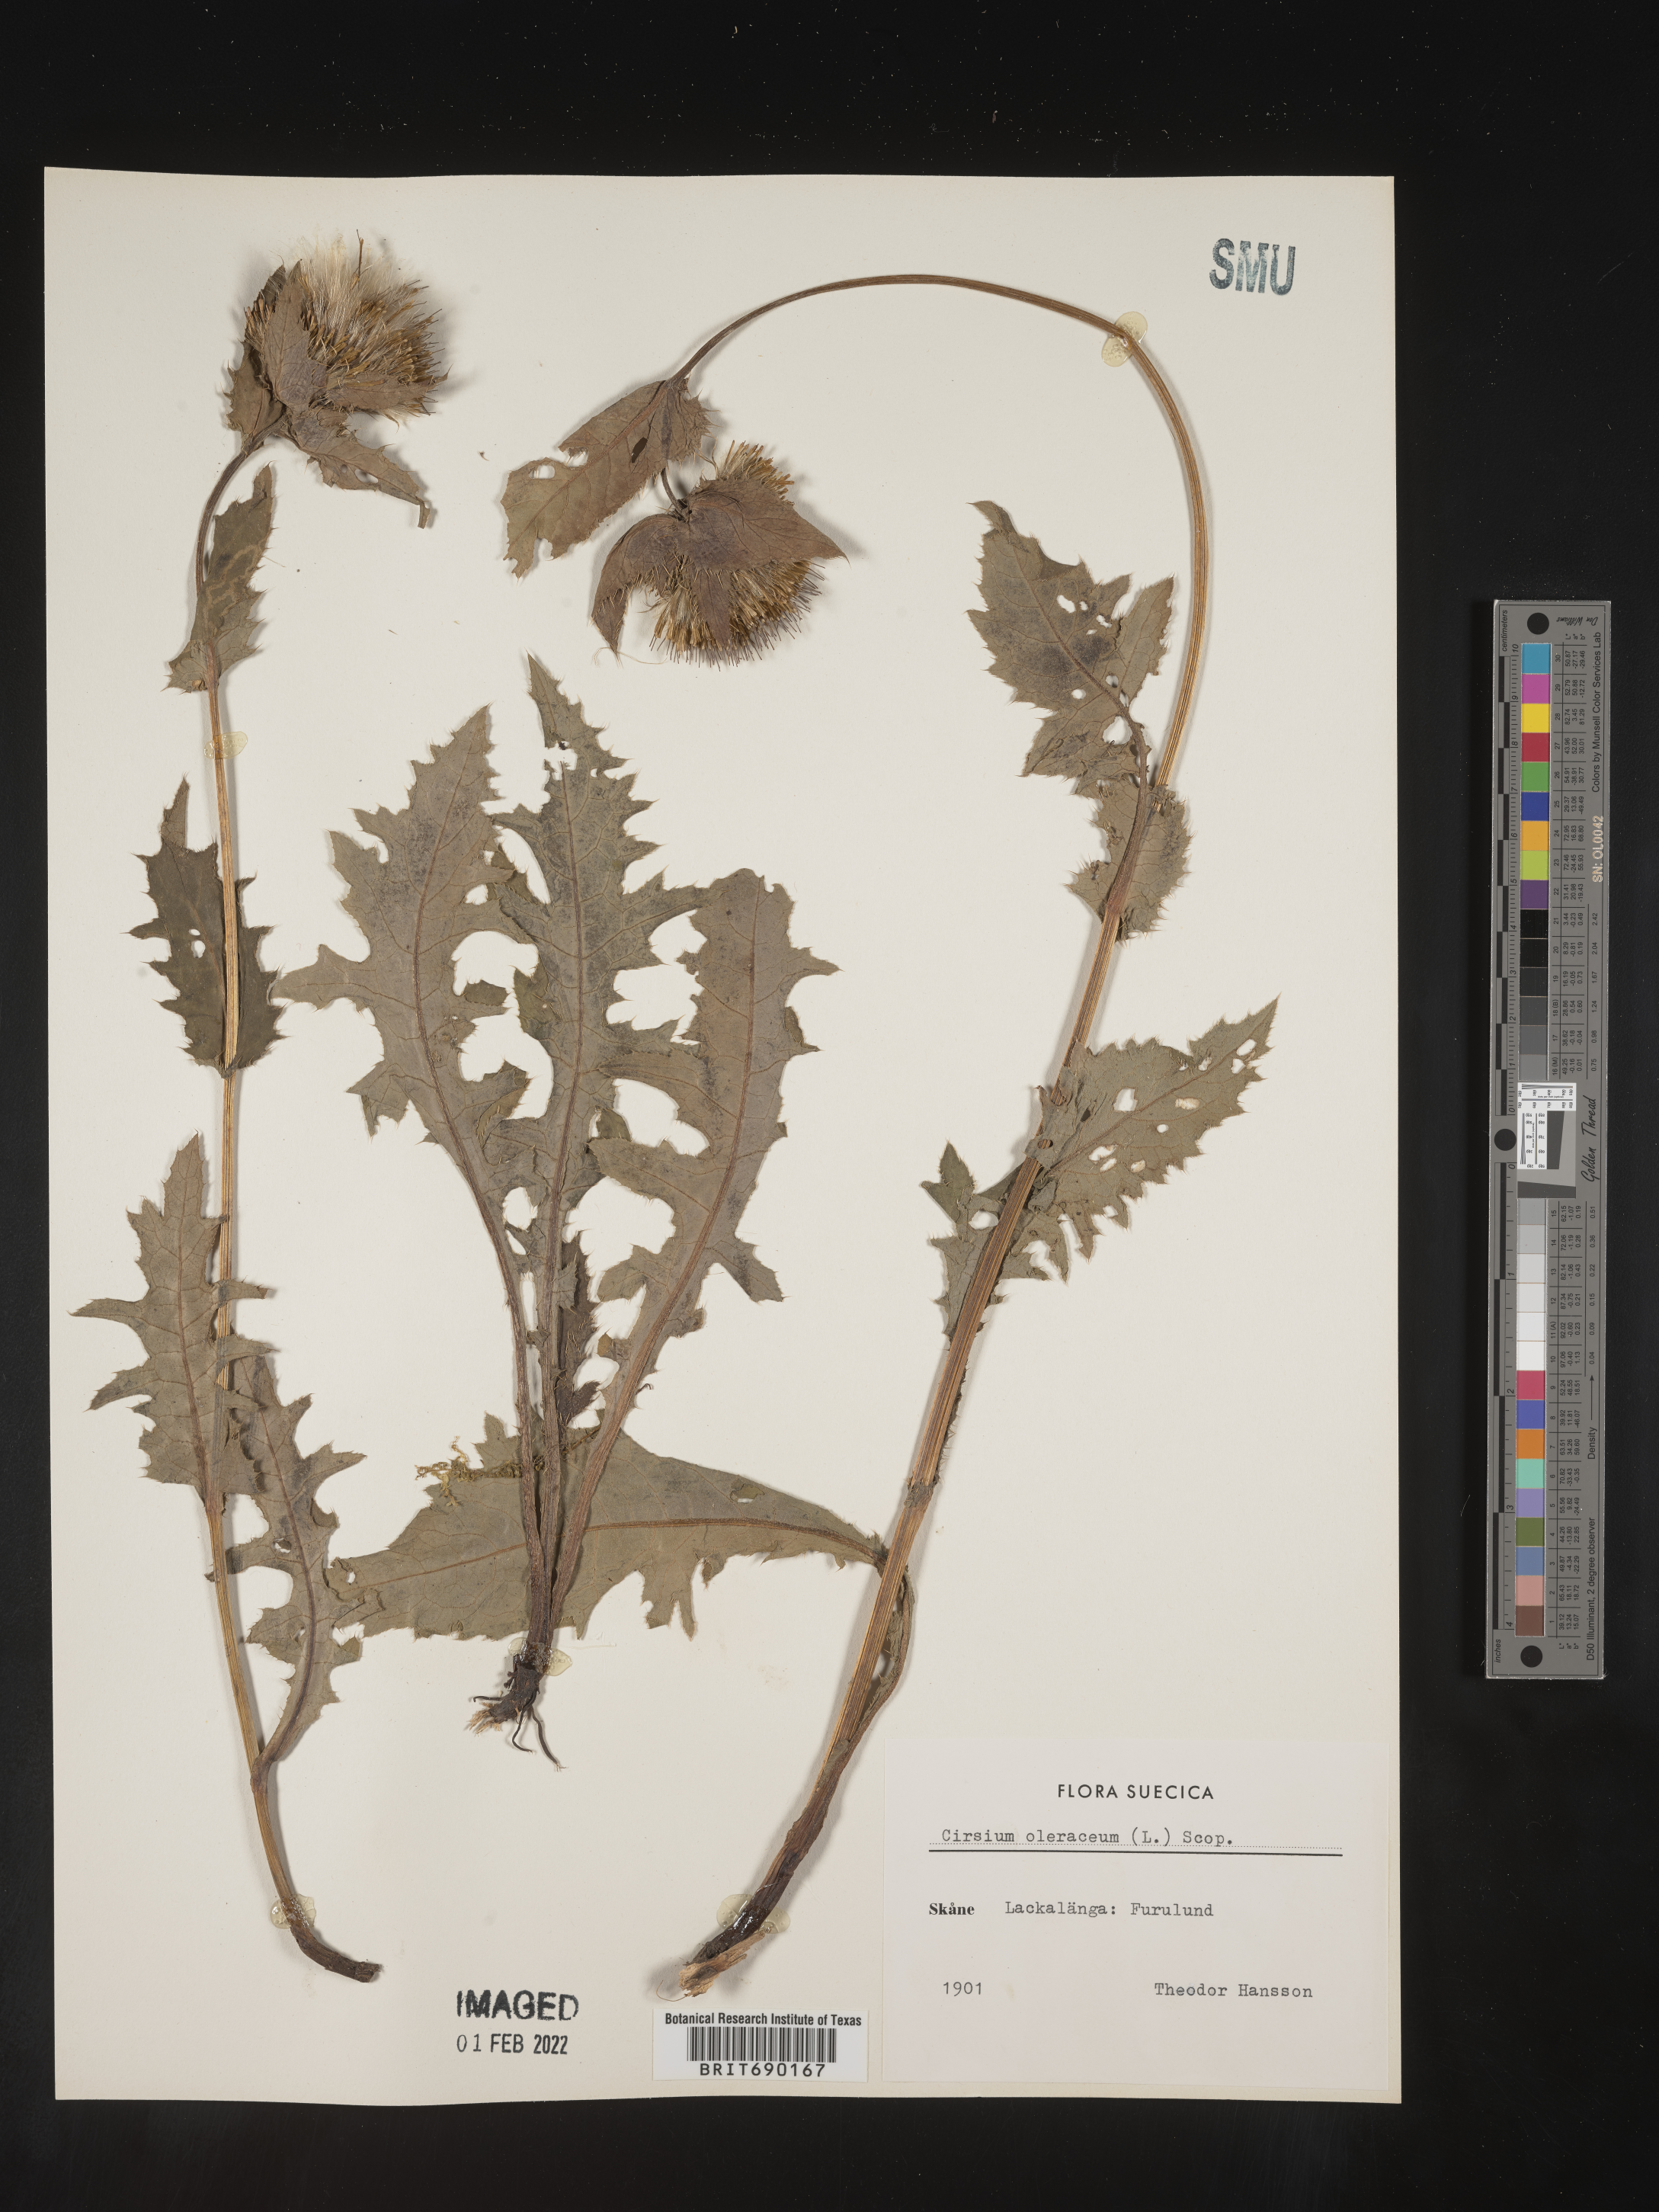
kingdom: Plantae
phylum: Tracheophyta
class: Magnoliopsida
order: Asterales
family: Asteraceae
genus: Cirsium
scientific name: Cirsium
